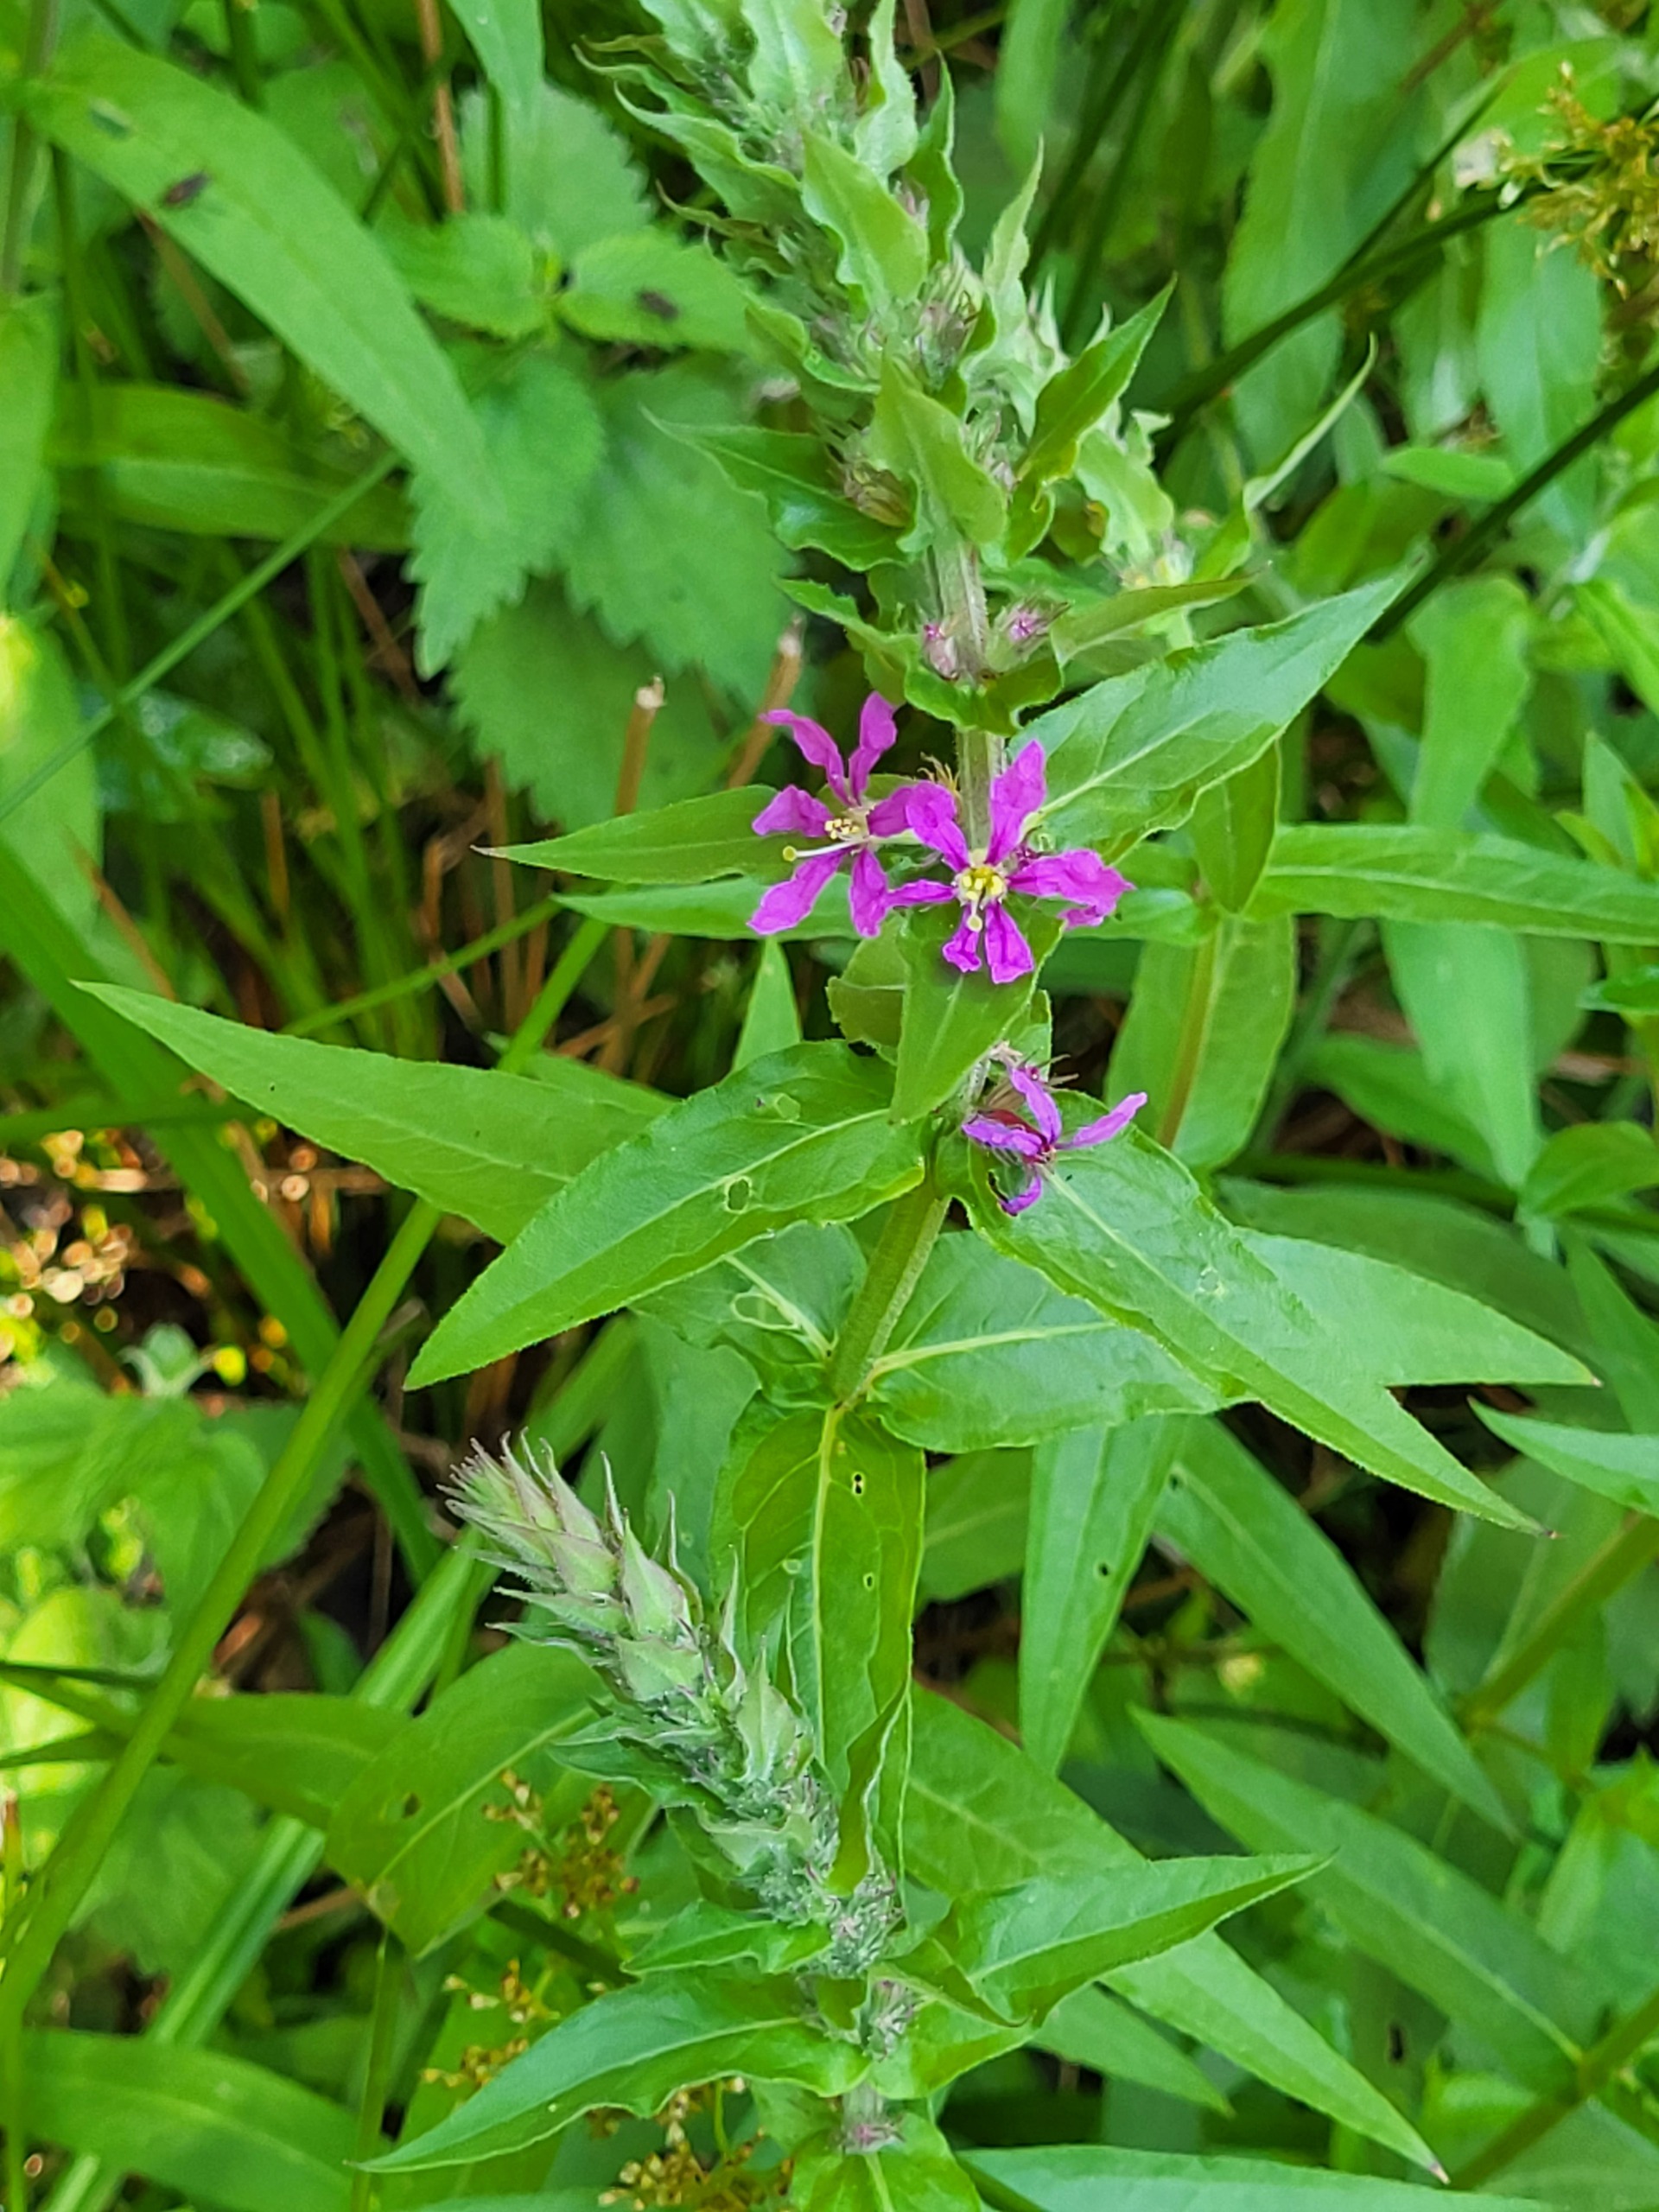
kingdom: Plantae
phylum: Tracheophyta
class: Magnoliopsida
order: Myrtales
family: Lythraceae
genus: Lythrum
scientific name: Lythrum salicaria
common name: Kattehale
